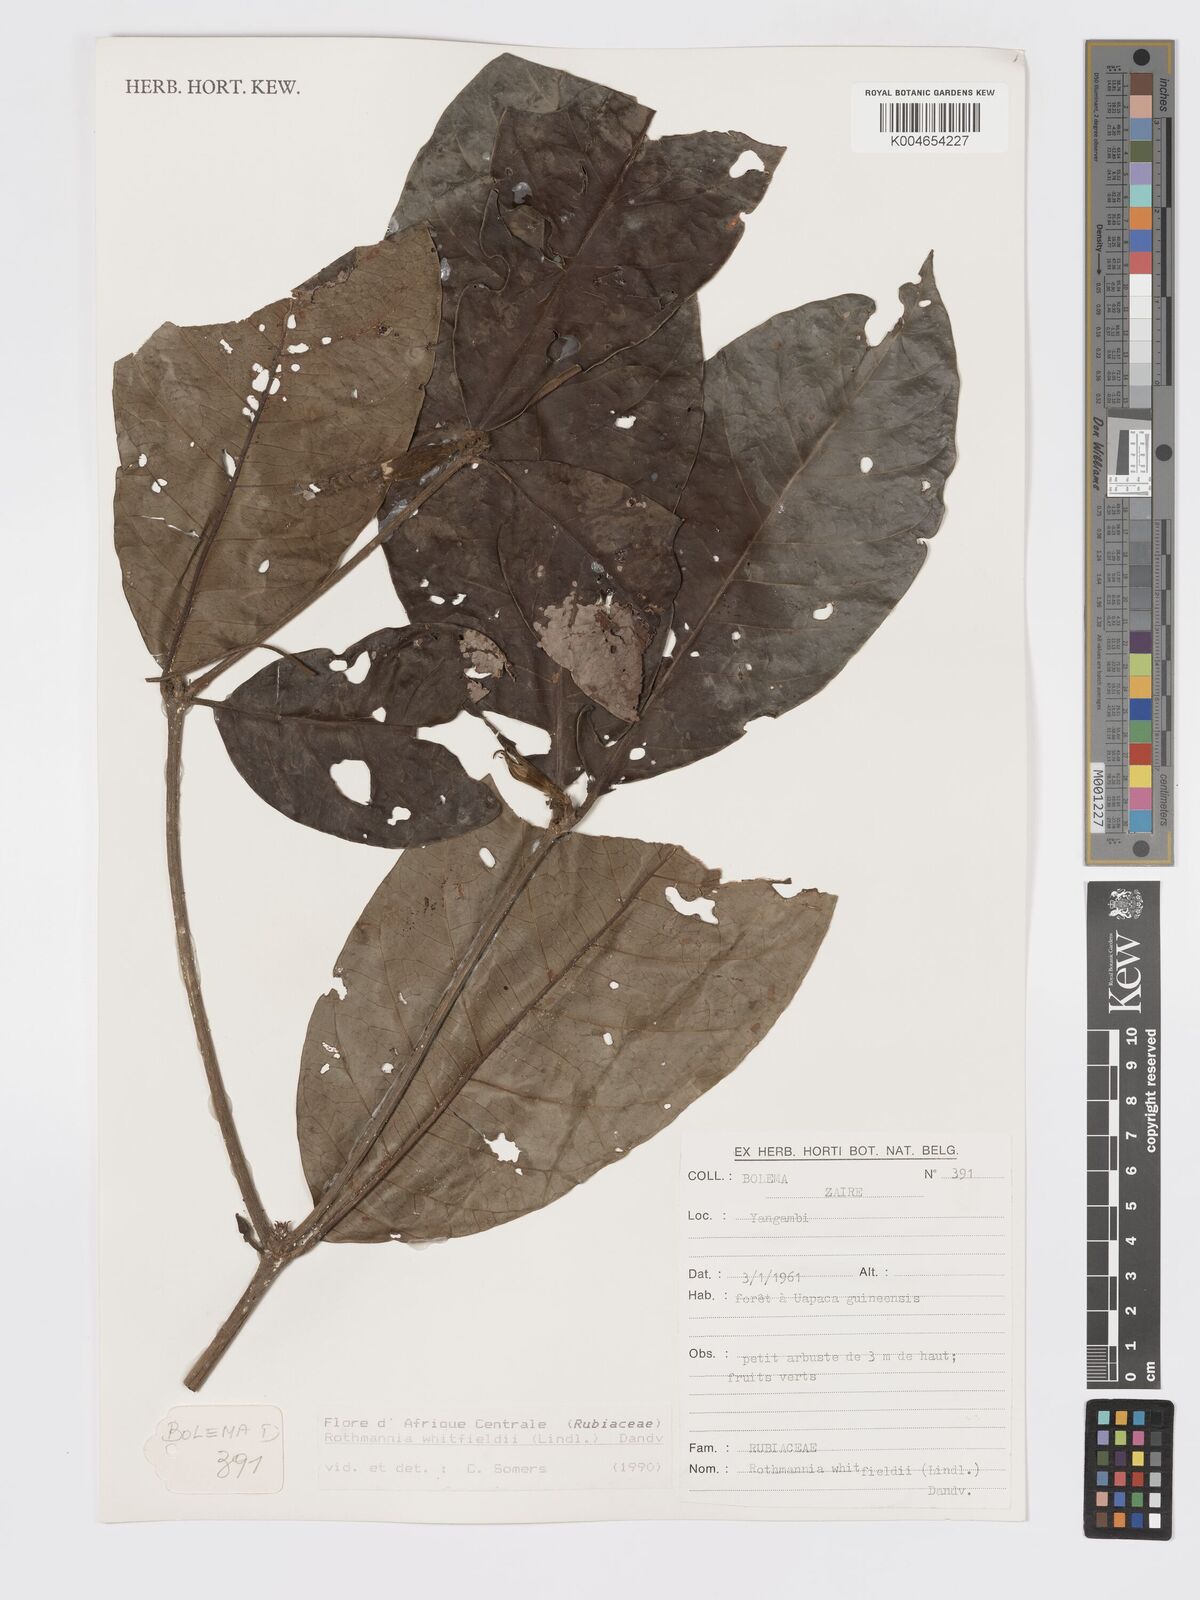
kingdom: Plantae
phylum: Tracheophyta
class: Magnoliopsida
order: Gentianales
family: Rubiaceae
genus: Rothmannia
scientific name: Rothmannia whitfieldii
